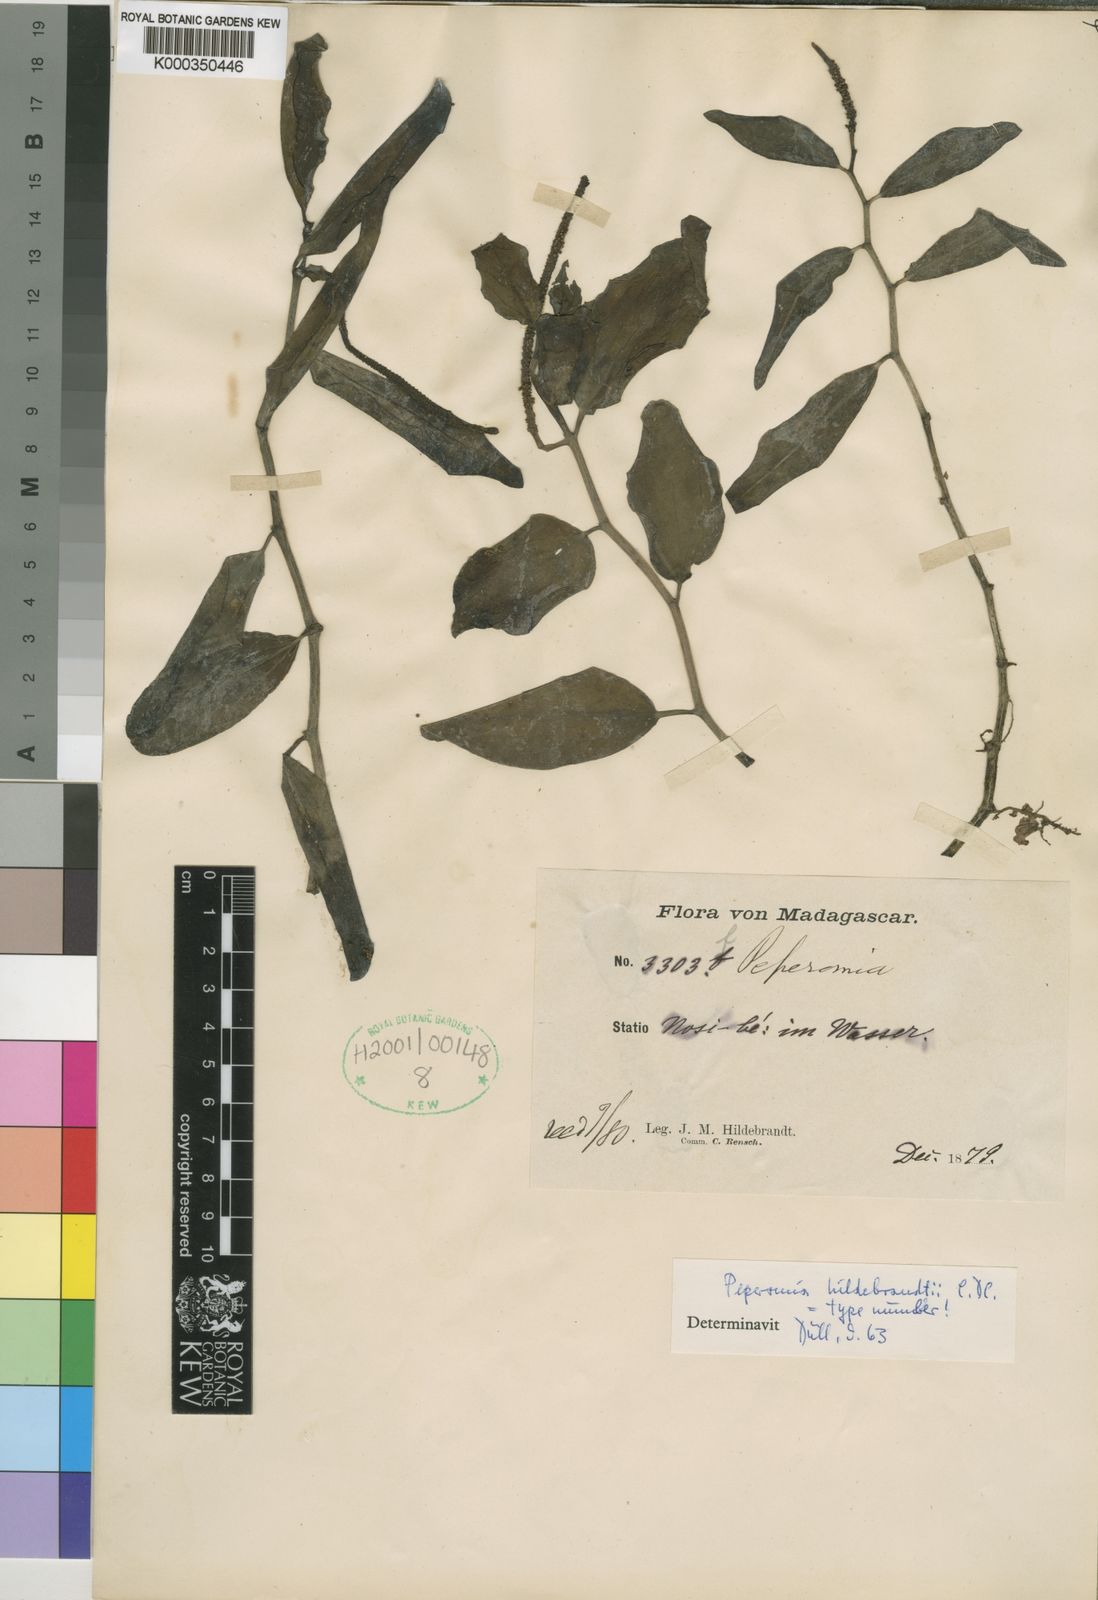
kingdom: Plantae
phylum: Tracheophyta
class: Magnoliopsida
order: Piperales
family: Piperaceae
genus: Peperomia
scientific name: Peperomia hildebrandtii
